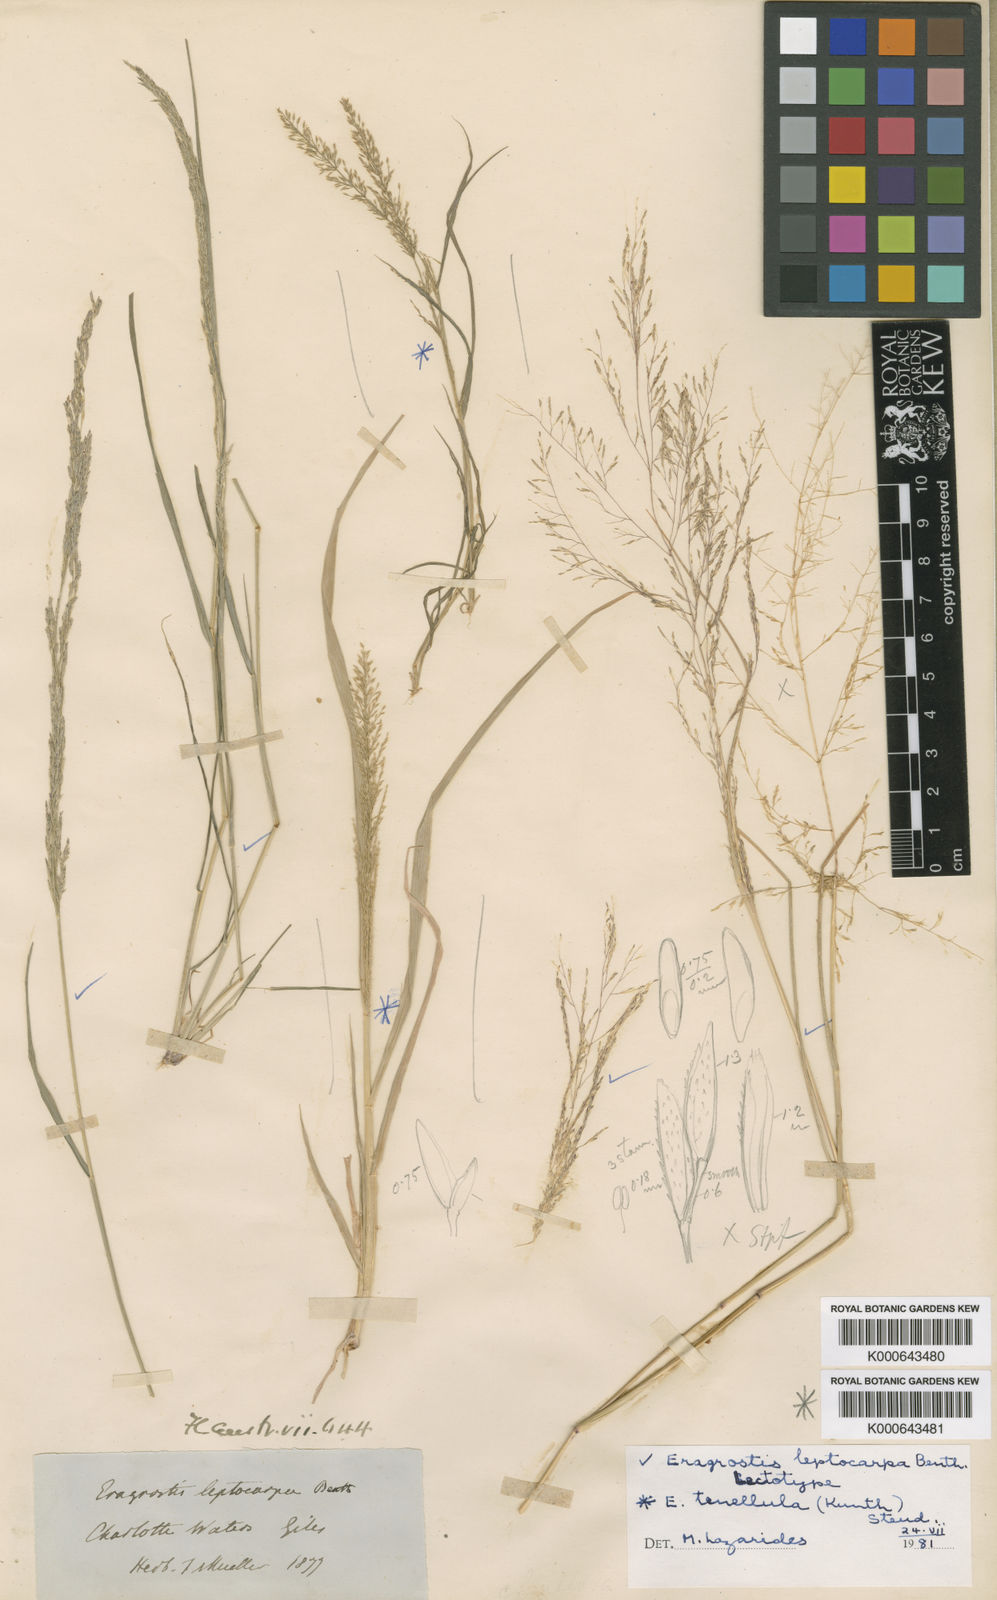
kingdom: Plantae
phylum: Tracheophyta
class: Liliopsida
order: Poales
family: Poaceae
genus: Eragrostis
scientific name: Eragrostis leptocarpa
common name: Drooping love grass
